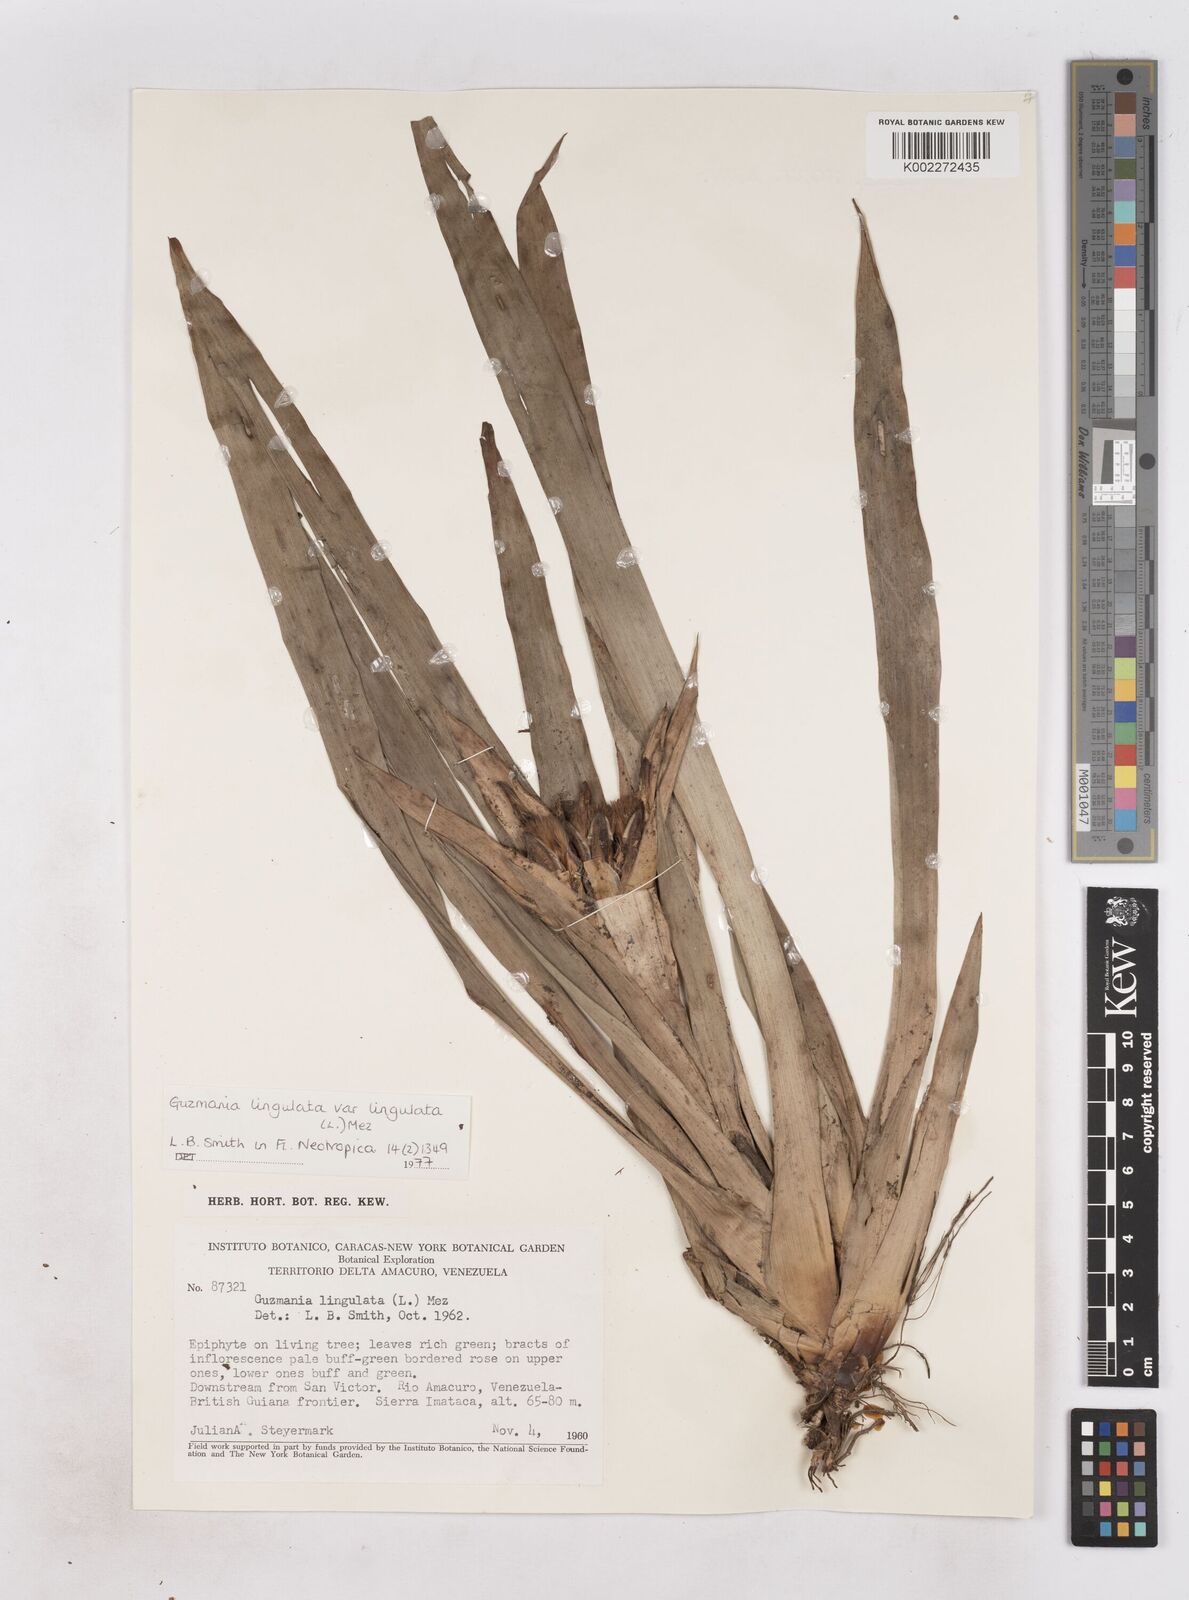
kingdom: Plantae
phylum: Tracheophyta
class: Liliopsida
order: Poales
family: Bromeliaceae
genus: Guzmania
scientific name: Guzmania lingulata
